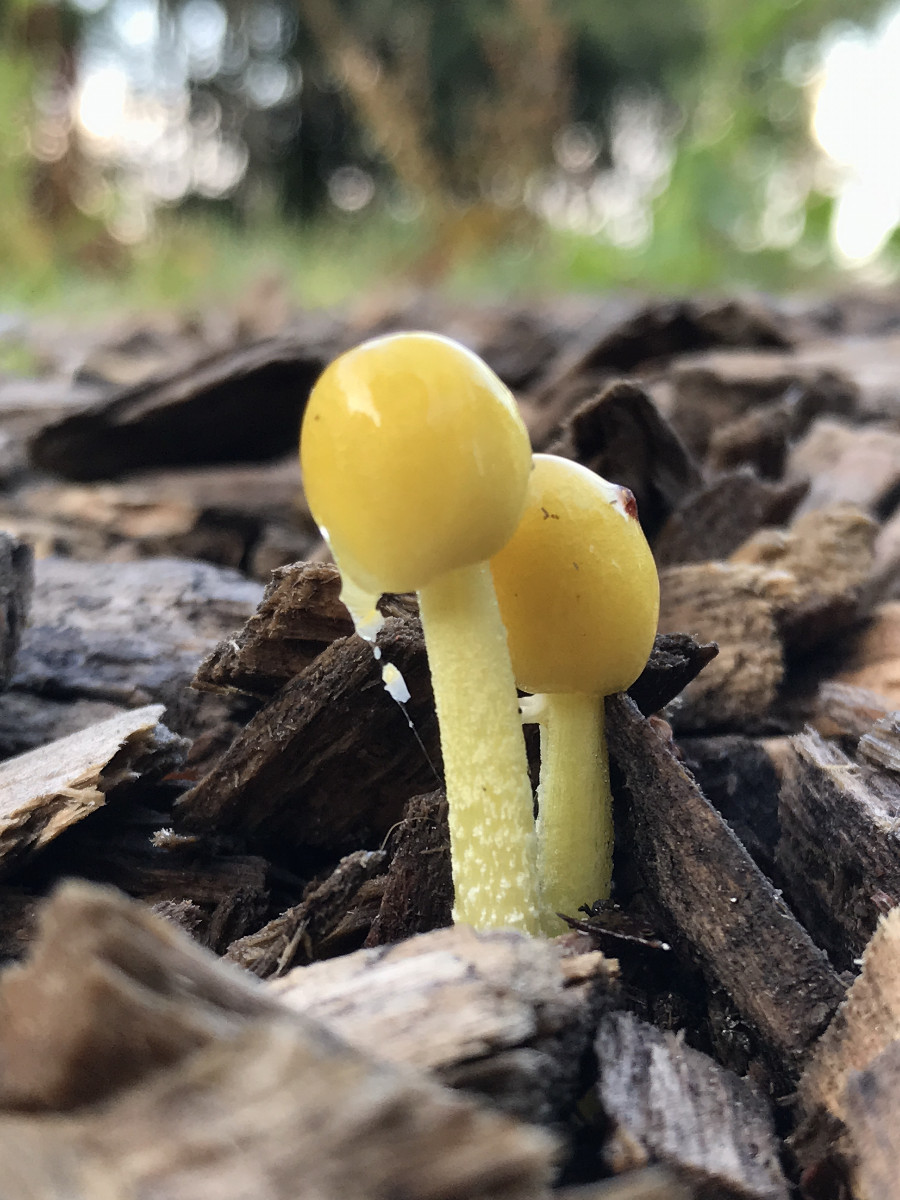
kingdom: Fungi
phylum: Basidiomycota
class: Agaricomycetes
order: Agaricales
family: Bolbitiaceae
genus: Bolbitius
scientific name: Bolbitius titubans
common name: almindelig gulhat
